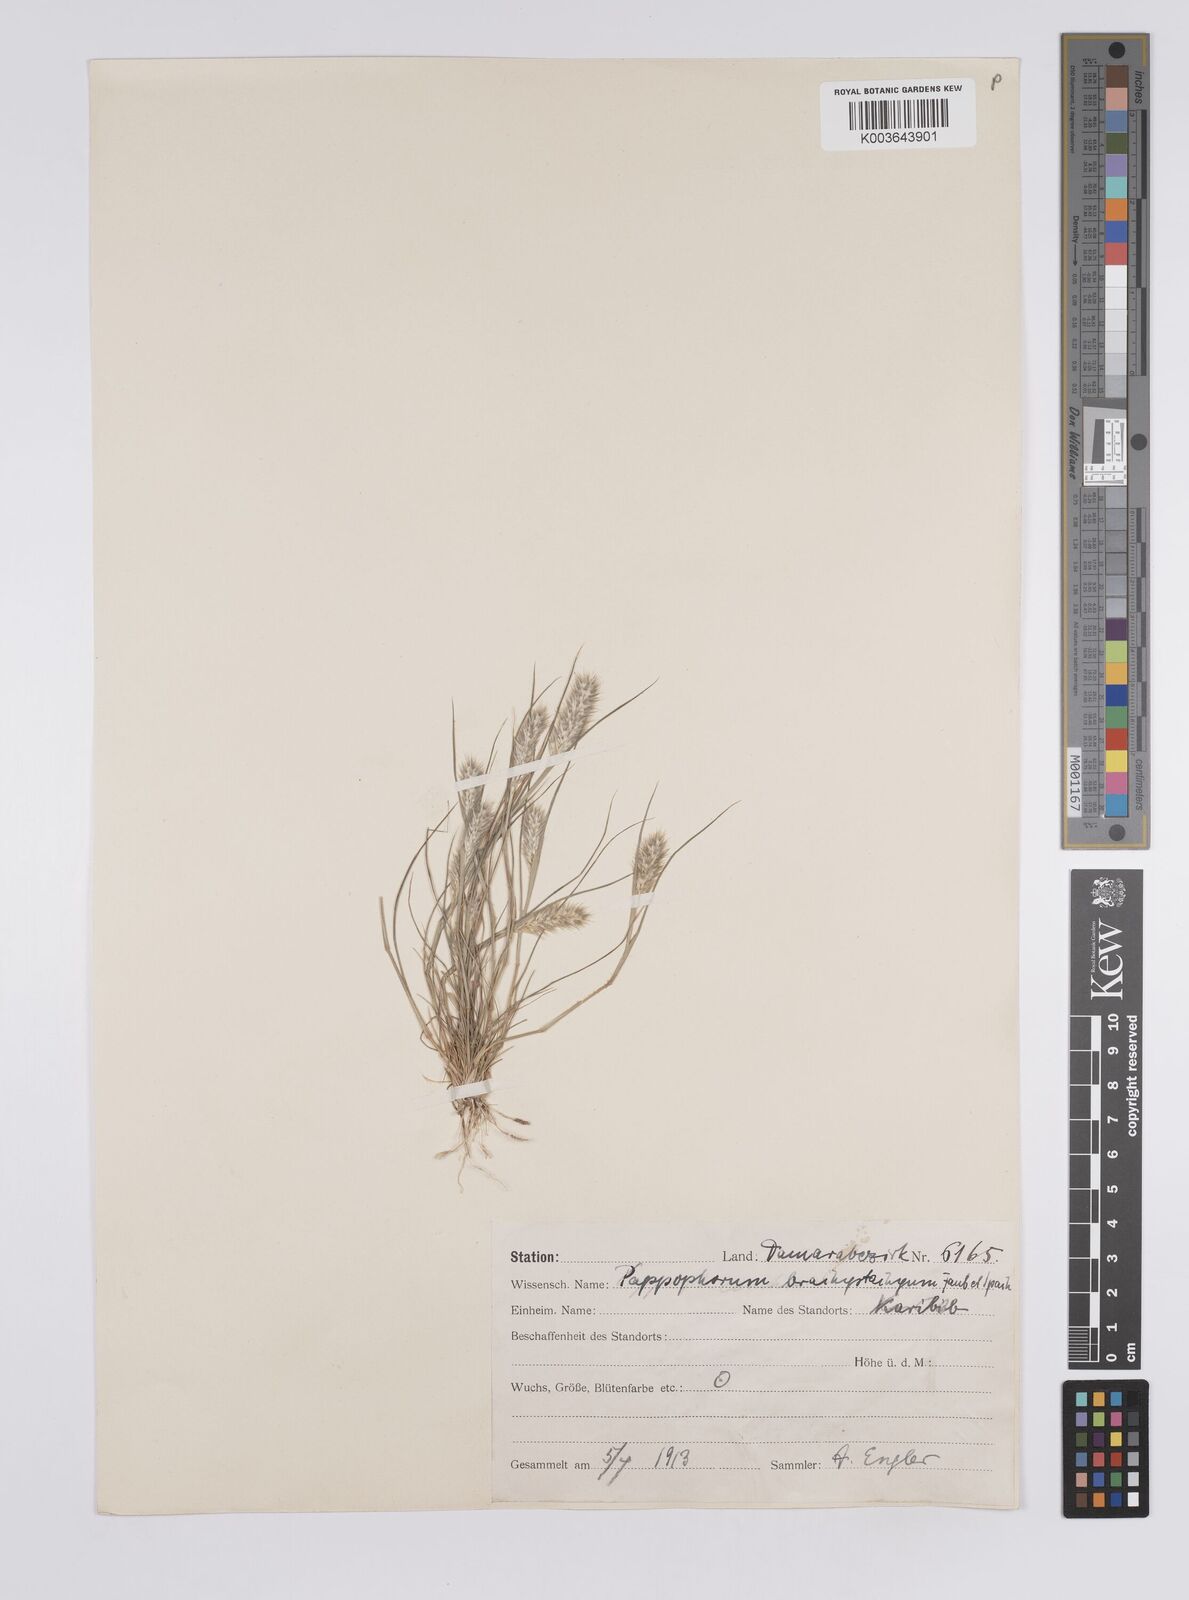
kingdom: Plantae
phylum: Tracheophyta
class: Liliopsida
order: Poales
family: Poaceae
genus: Enneapogon
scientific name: Enneapogon desvauxii
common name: Feather pappus grass
